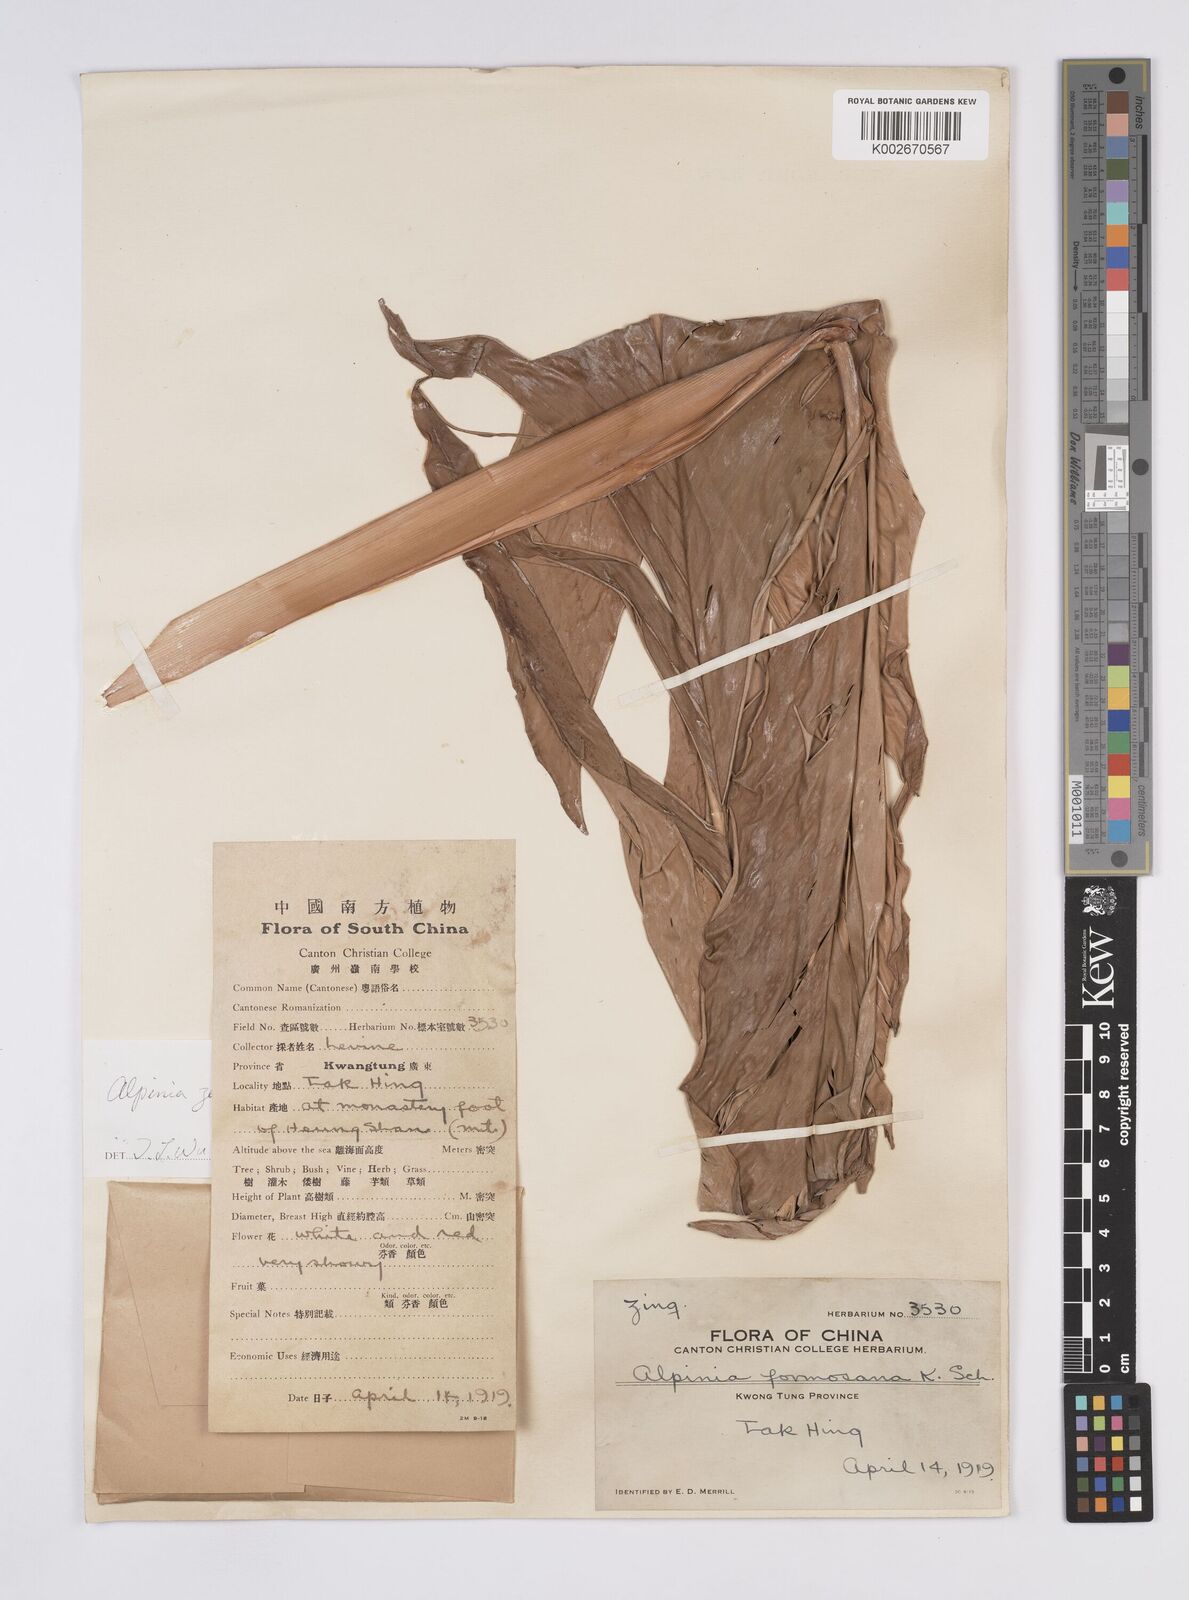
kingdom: Plantae
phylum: Tracheophyta
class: Liliopsida
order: Zingiberales
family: Zingiberaceae
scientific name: Zingiberaceae
